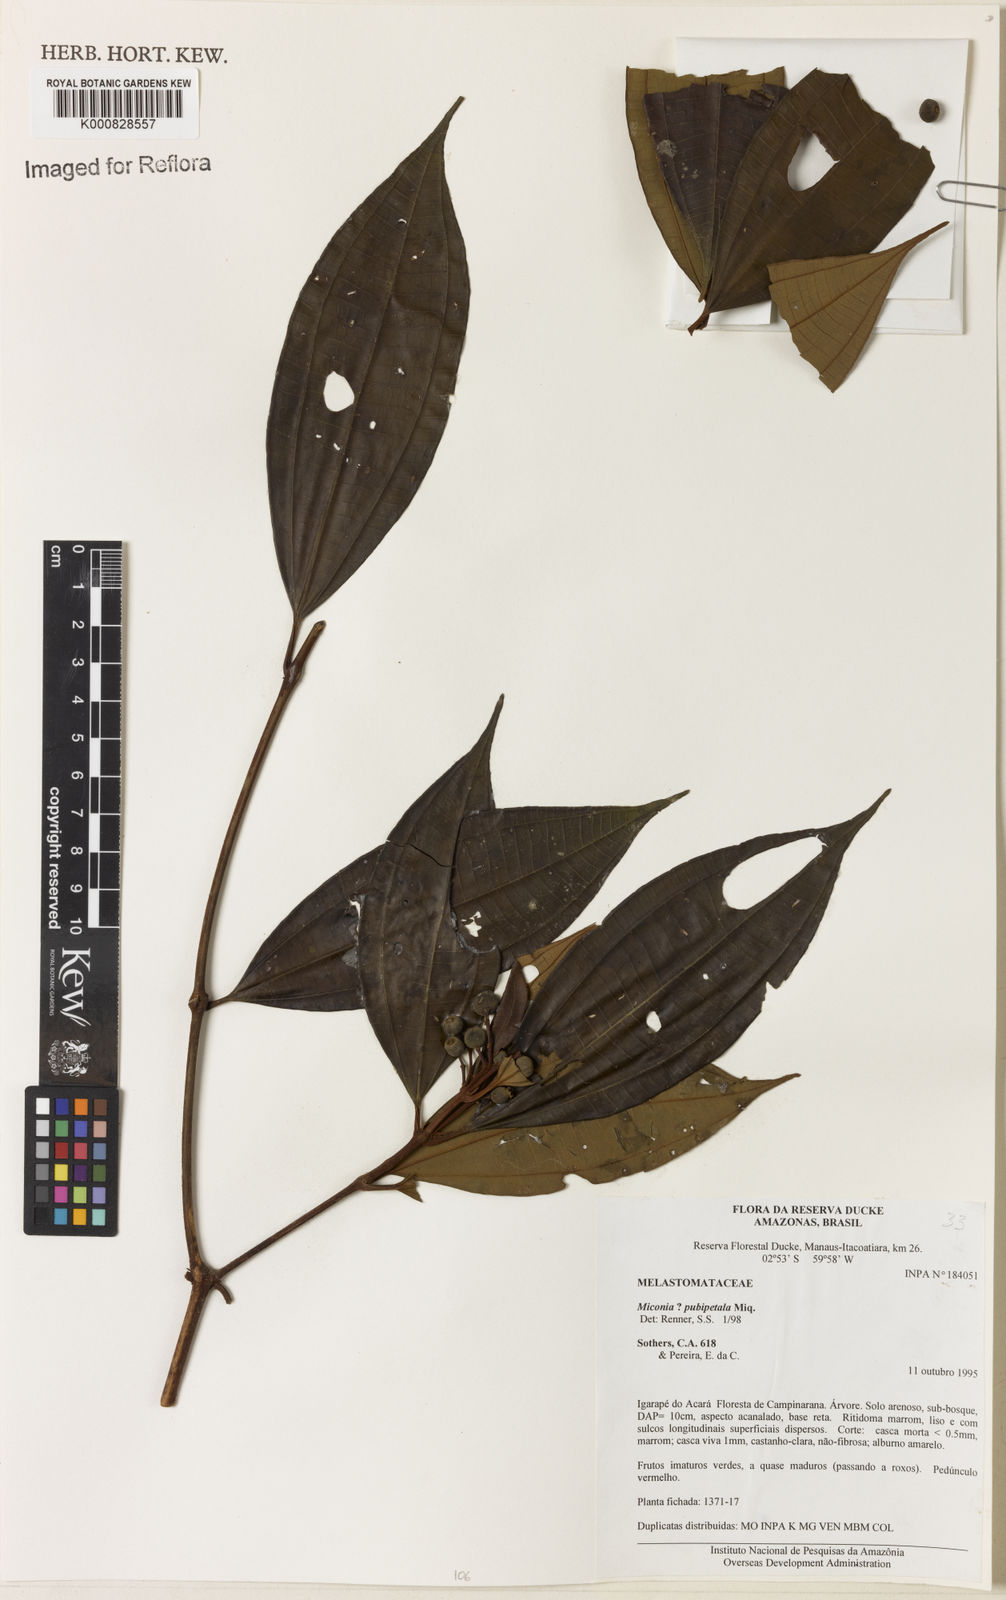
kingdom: Plantae
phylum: Tracheophyta
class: Magnoliopsida
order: Myrtales
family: Melastomataceae
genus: Miconia
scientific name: Miconia pubipetala
